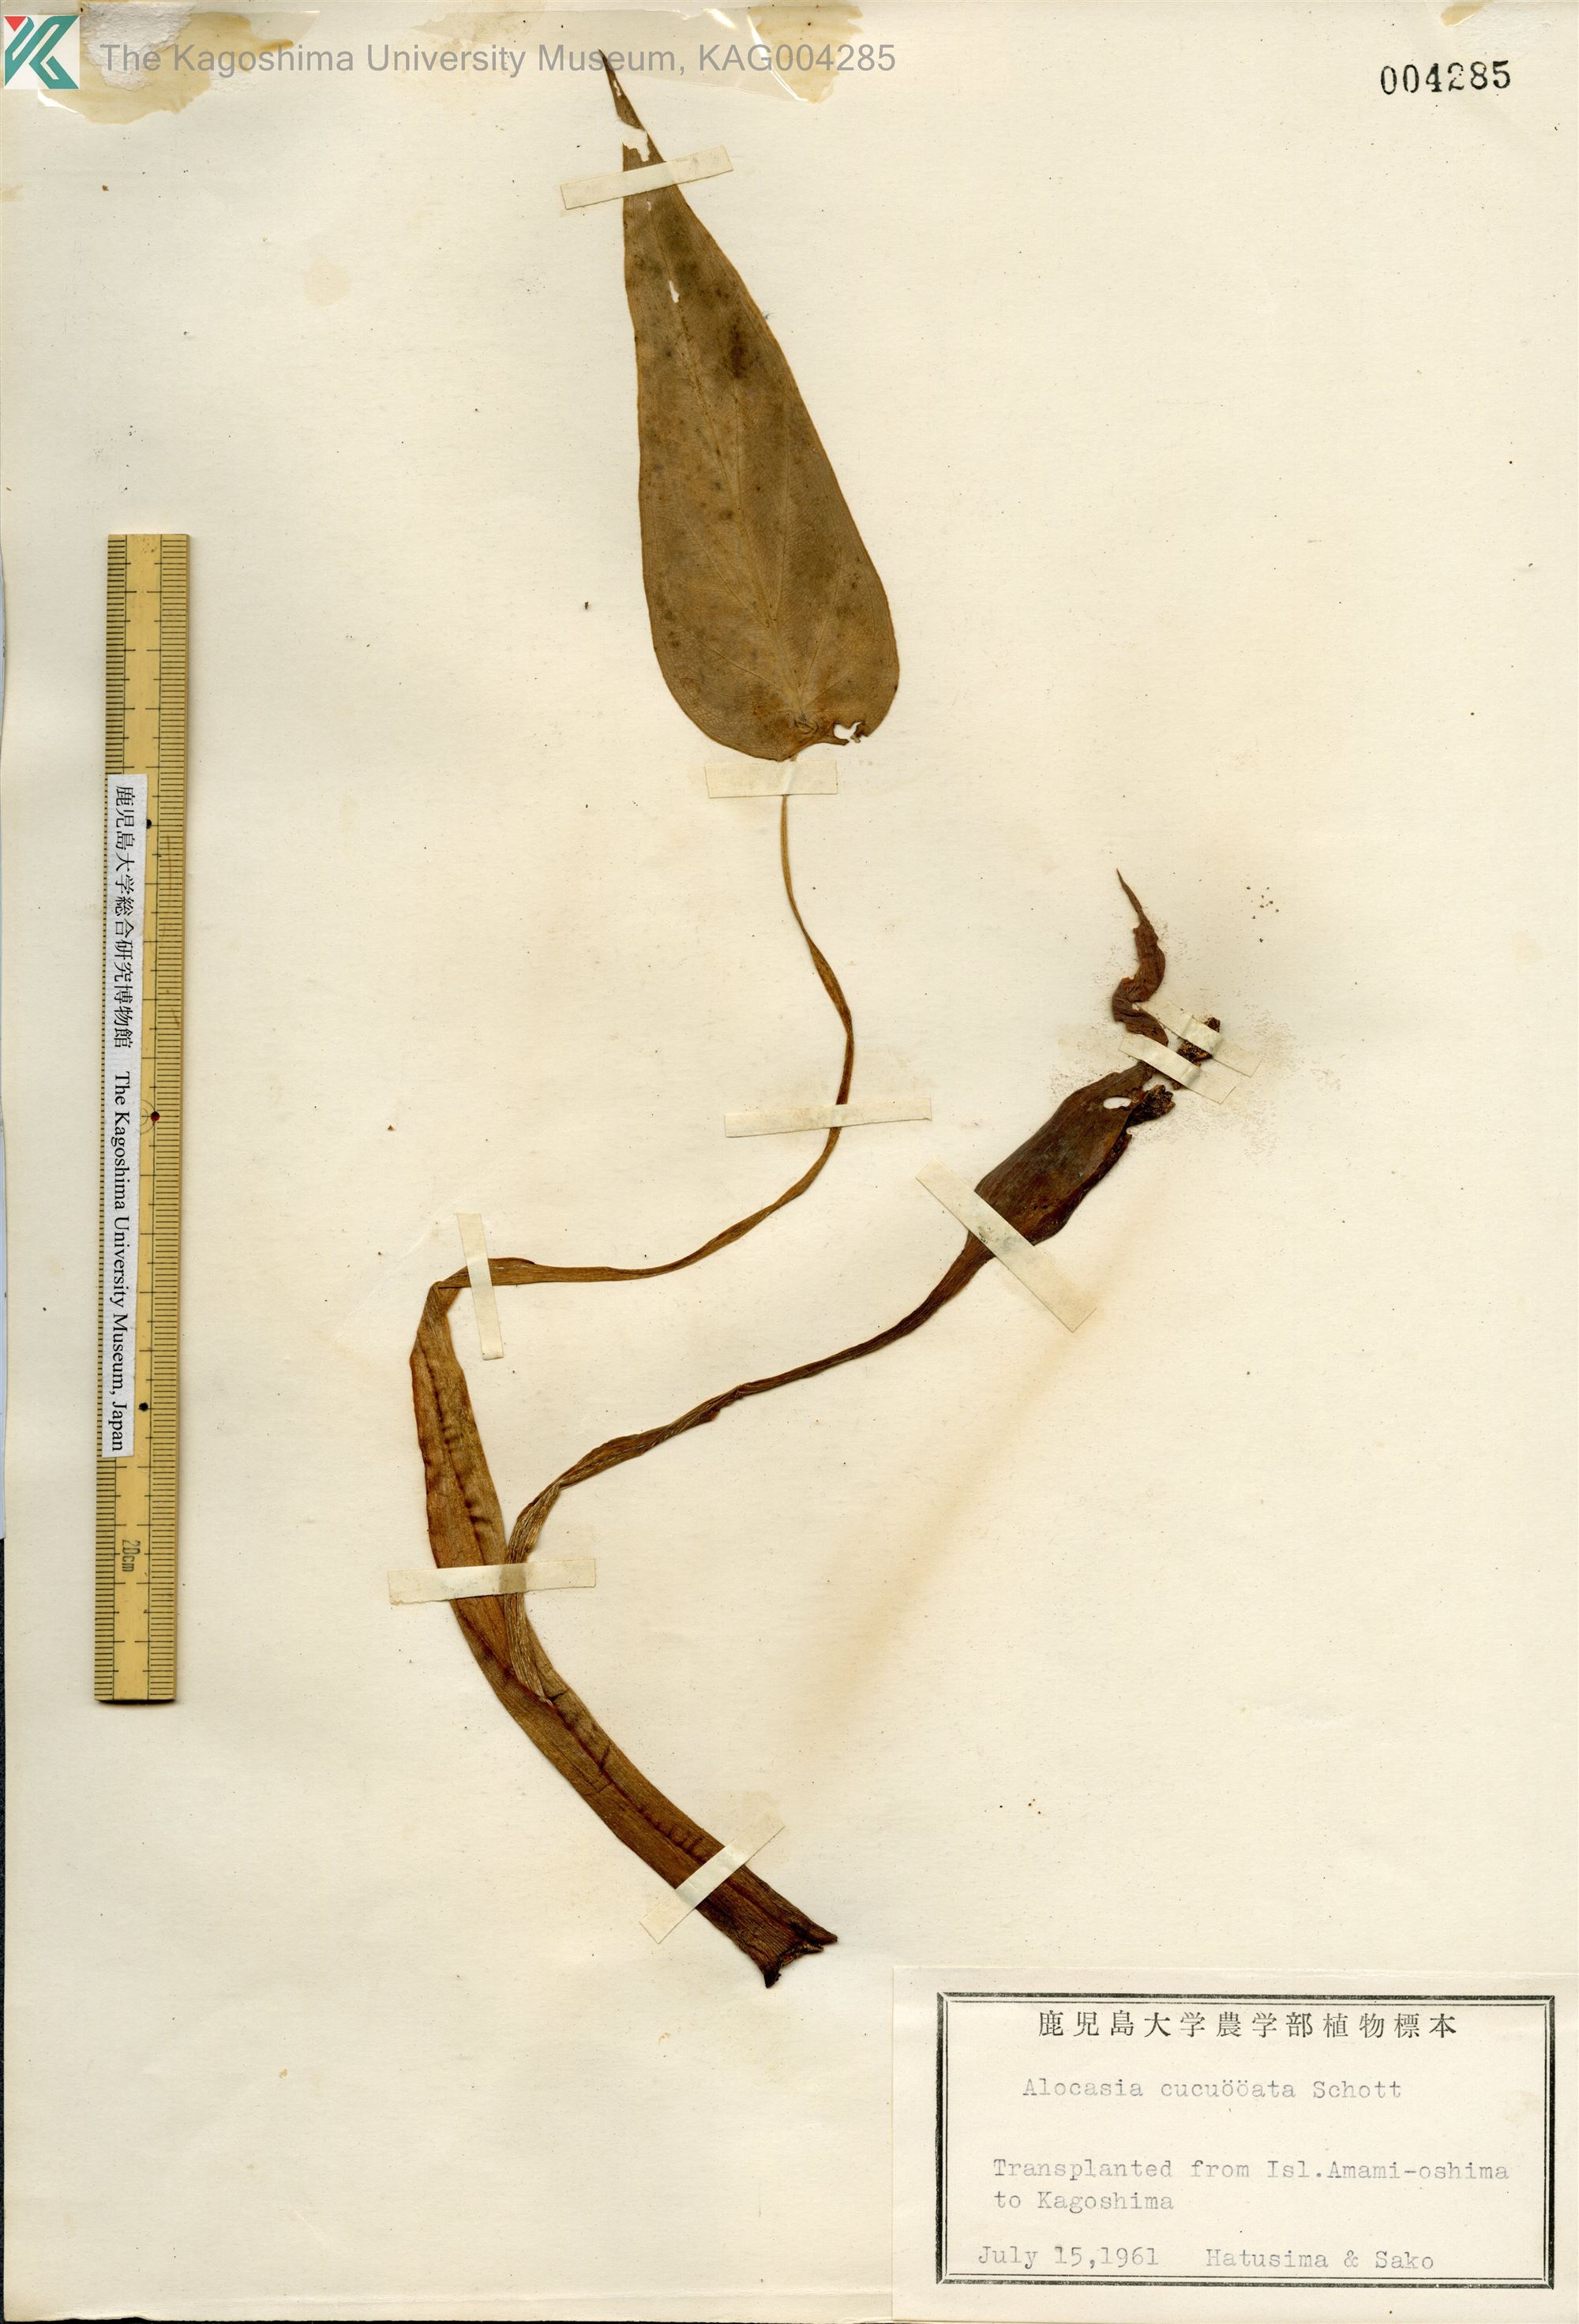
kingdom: Plantae
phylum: Tracheophyta
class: Liliopsida
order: Alismatales
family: Araceae
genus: Alocasia
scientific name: Alocasia cucullata
